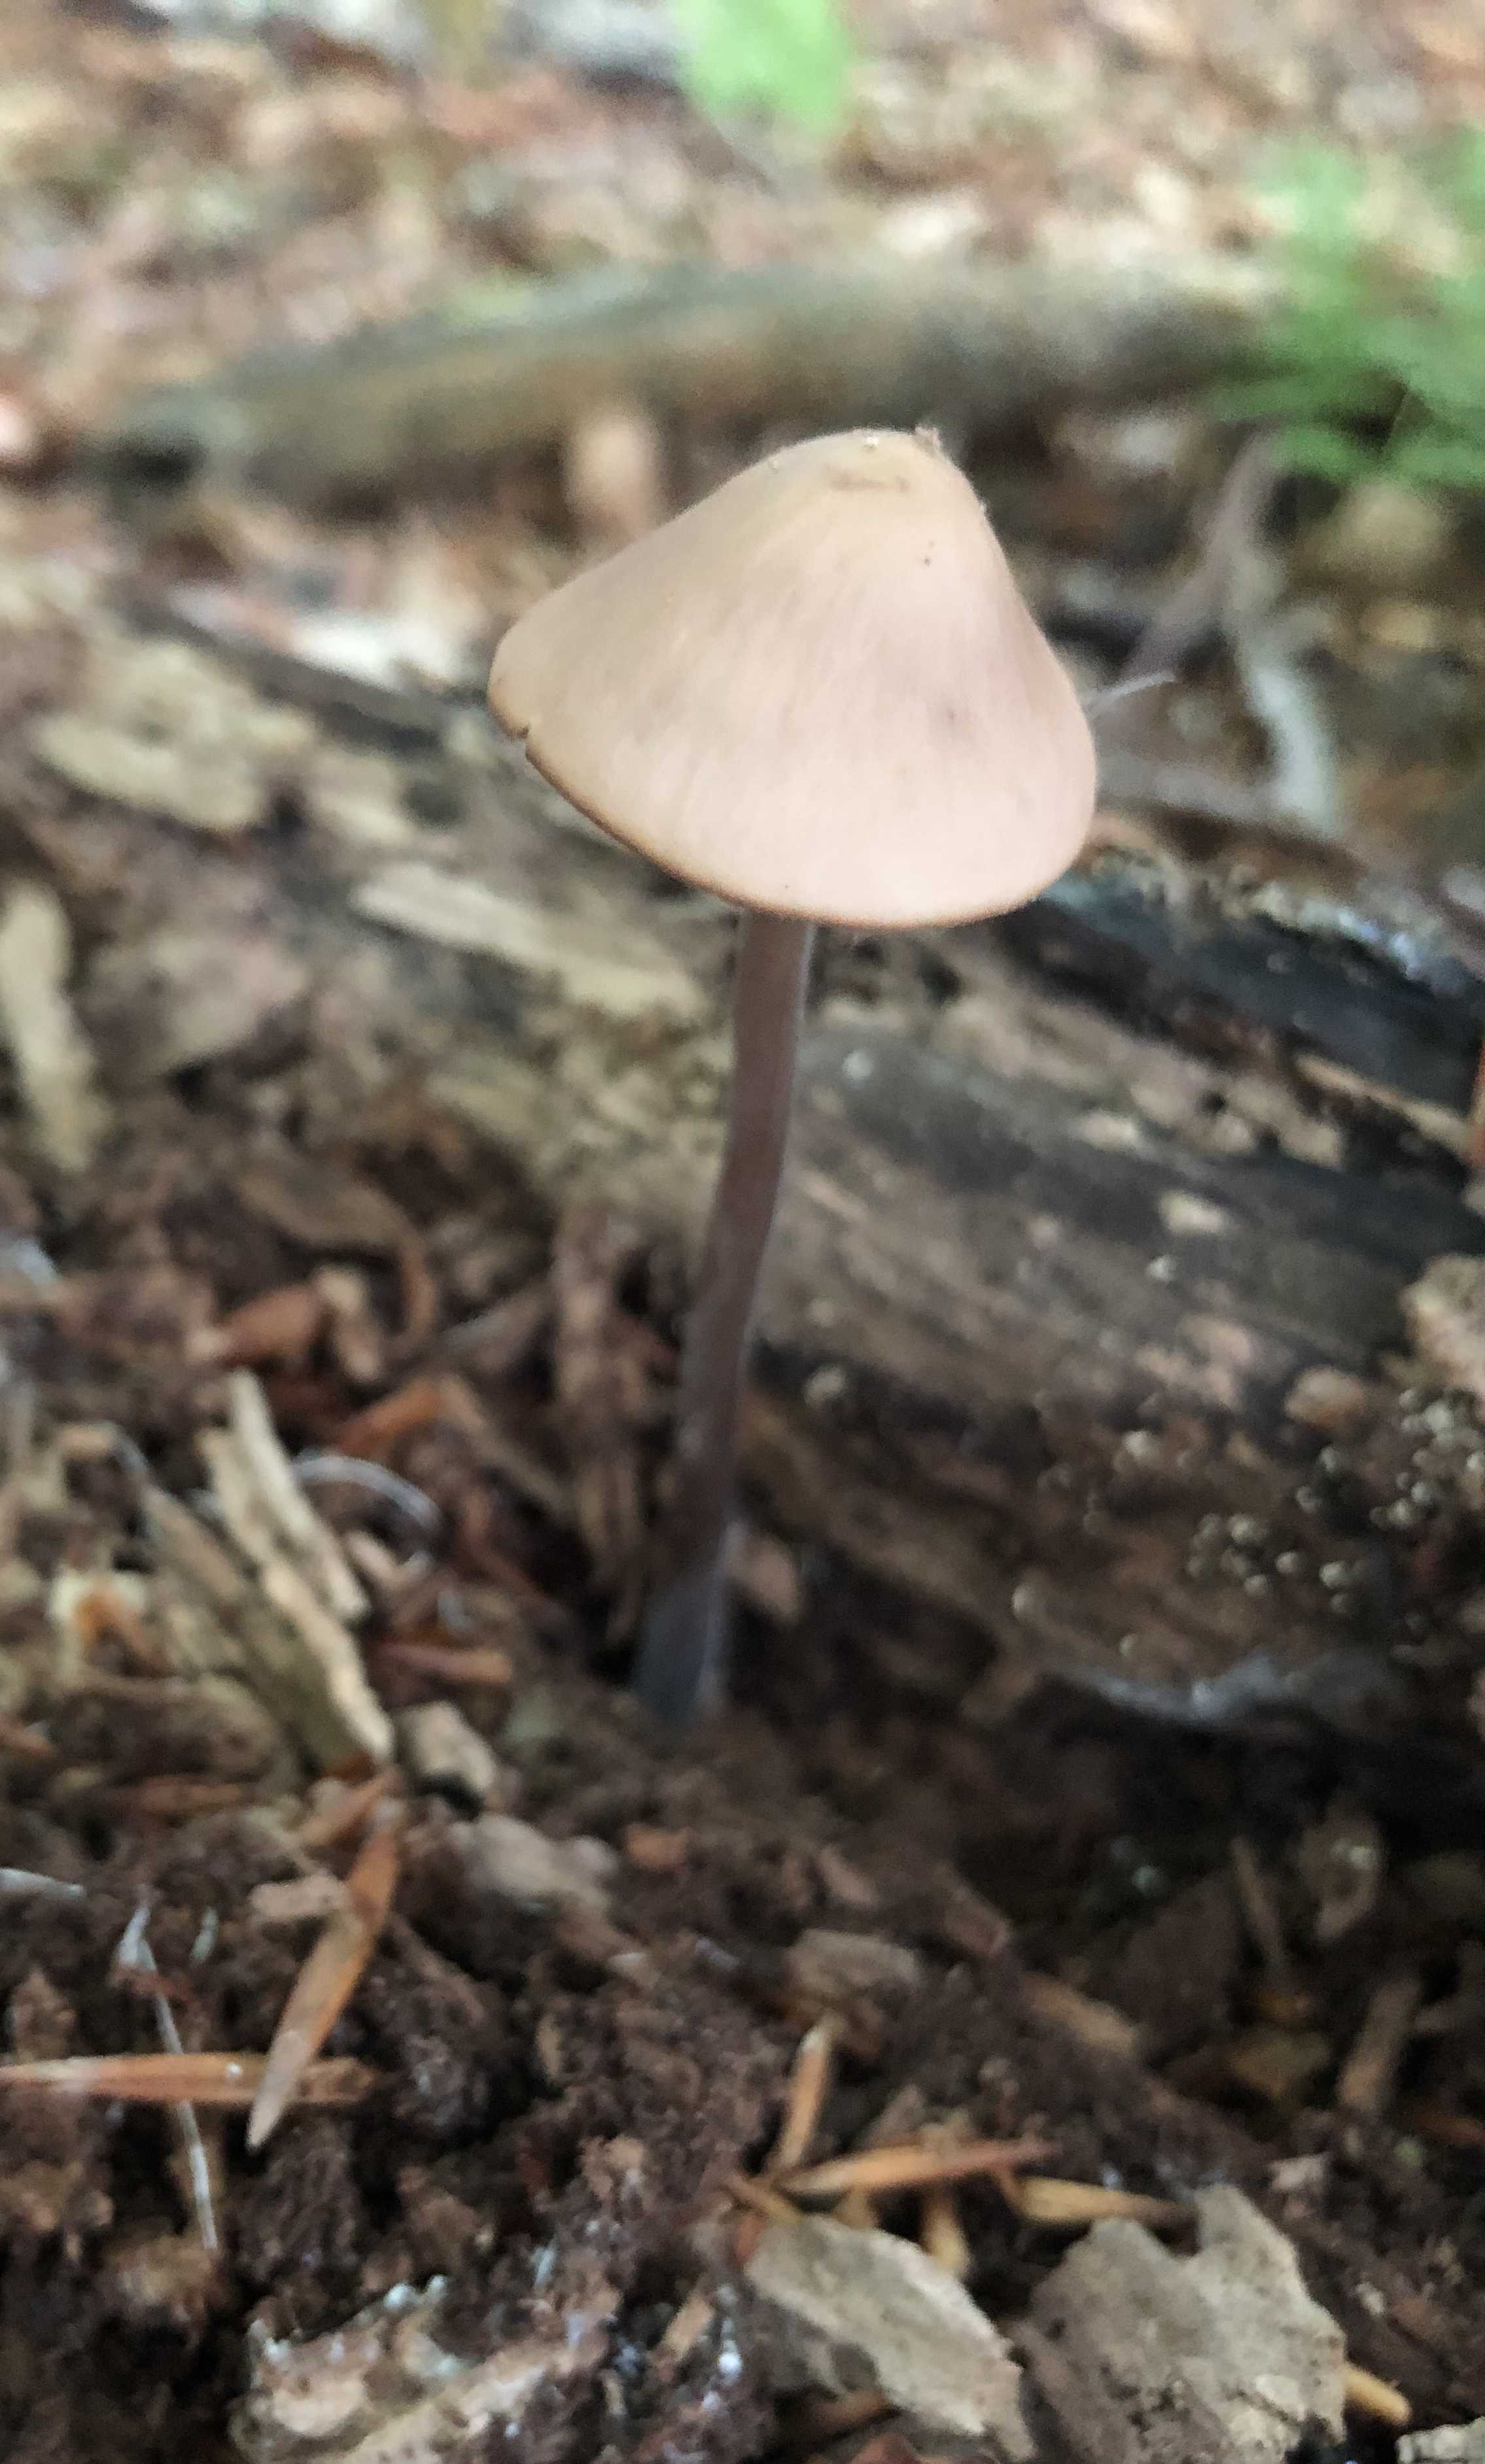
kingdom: Fungi
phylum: Basidiomycota
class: Agaricomycetes
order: Agaricales
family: Omphalotaceae
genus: Mycetinis
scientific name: Mycetinis alliaceus
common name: stor løghat
